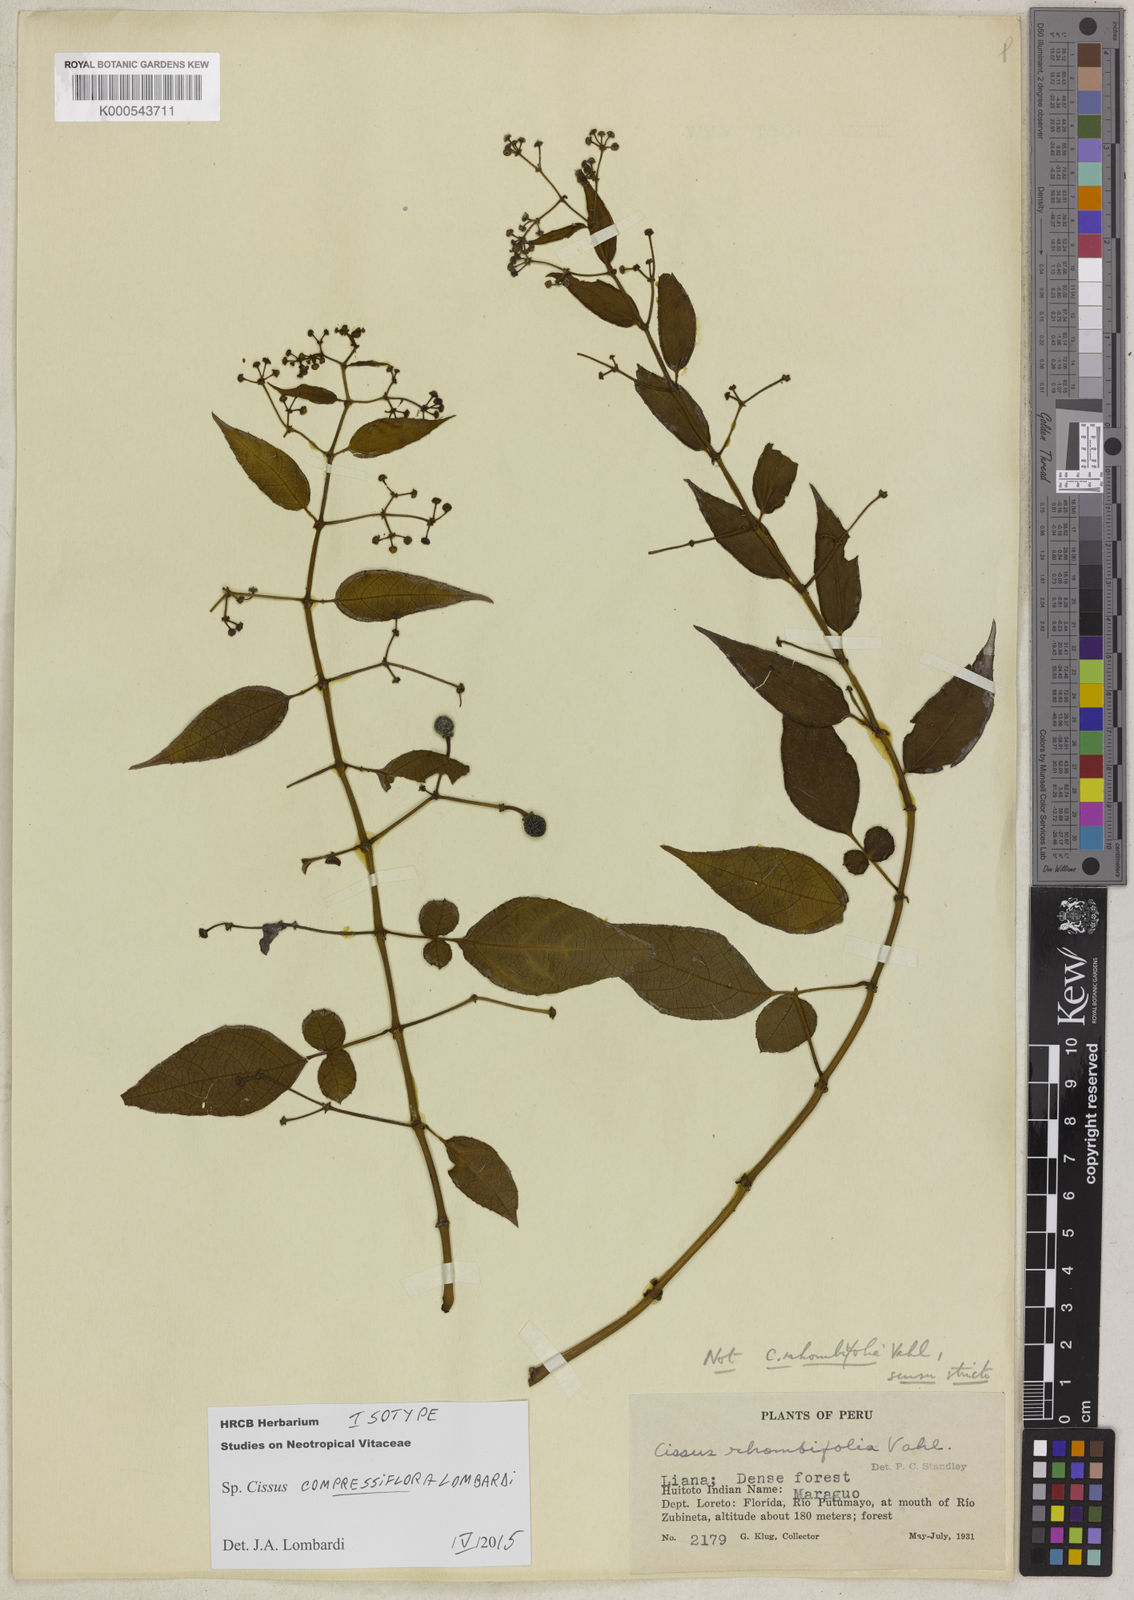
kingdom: Plantae
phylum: Tracheophyta
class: Magnoliopsida
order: Vitales
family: Vitaceae
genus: Cissus
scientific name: Cissus compressiflora
